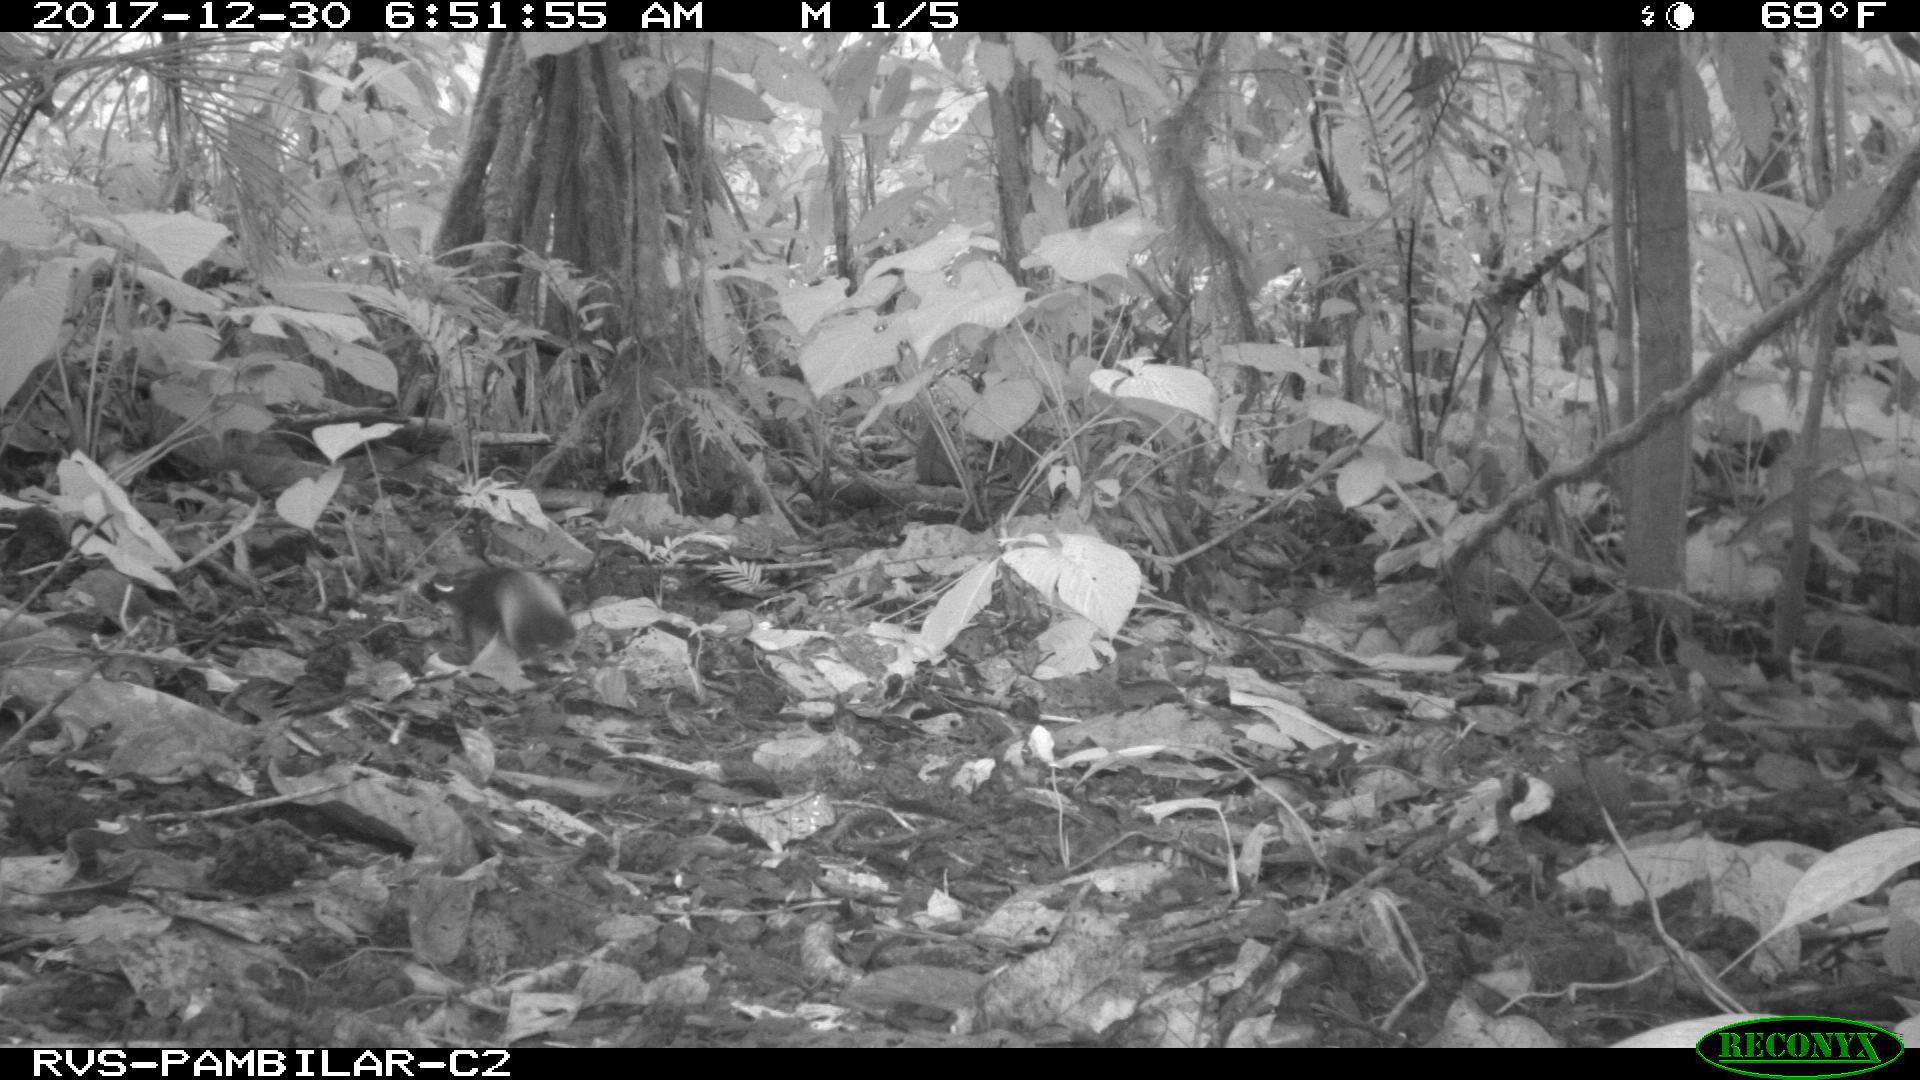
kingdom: Animalia
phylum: Chordata
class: Mammalia
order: Rodentia
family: Sciuridae
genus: Sciurus
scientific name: Sciurus granatensis
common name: Red-tailed squirrel
